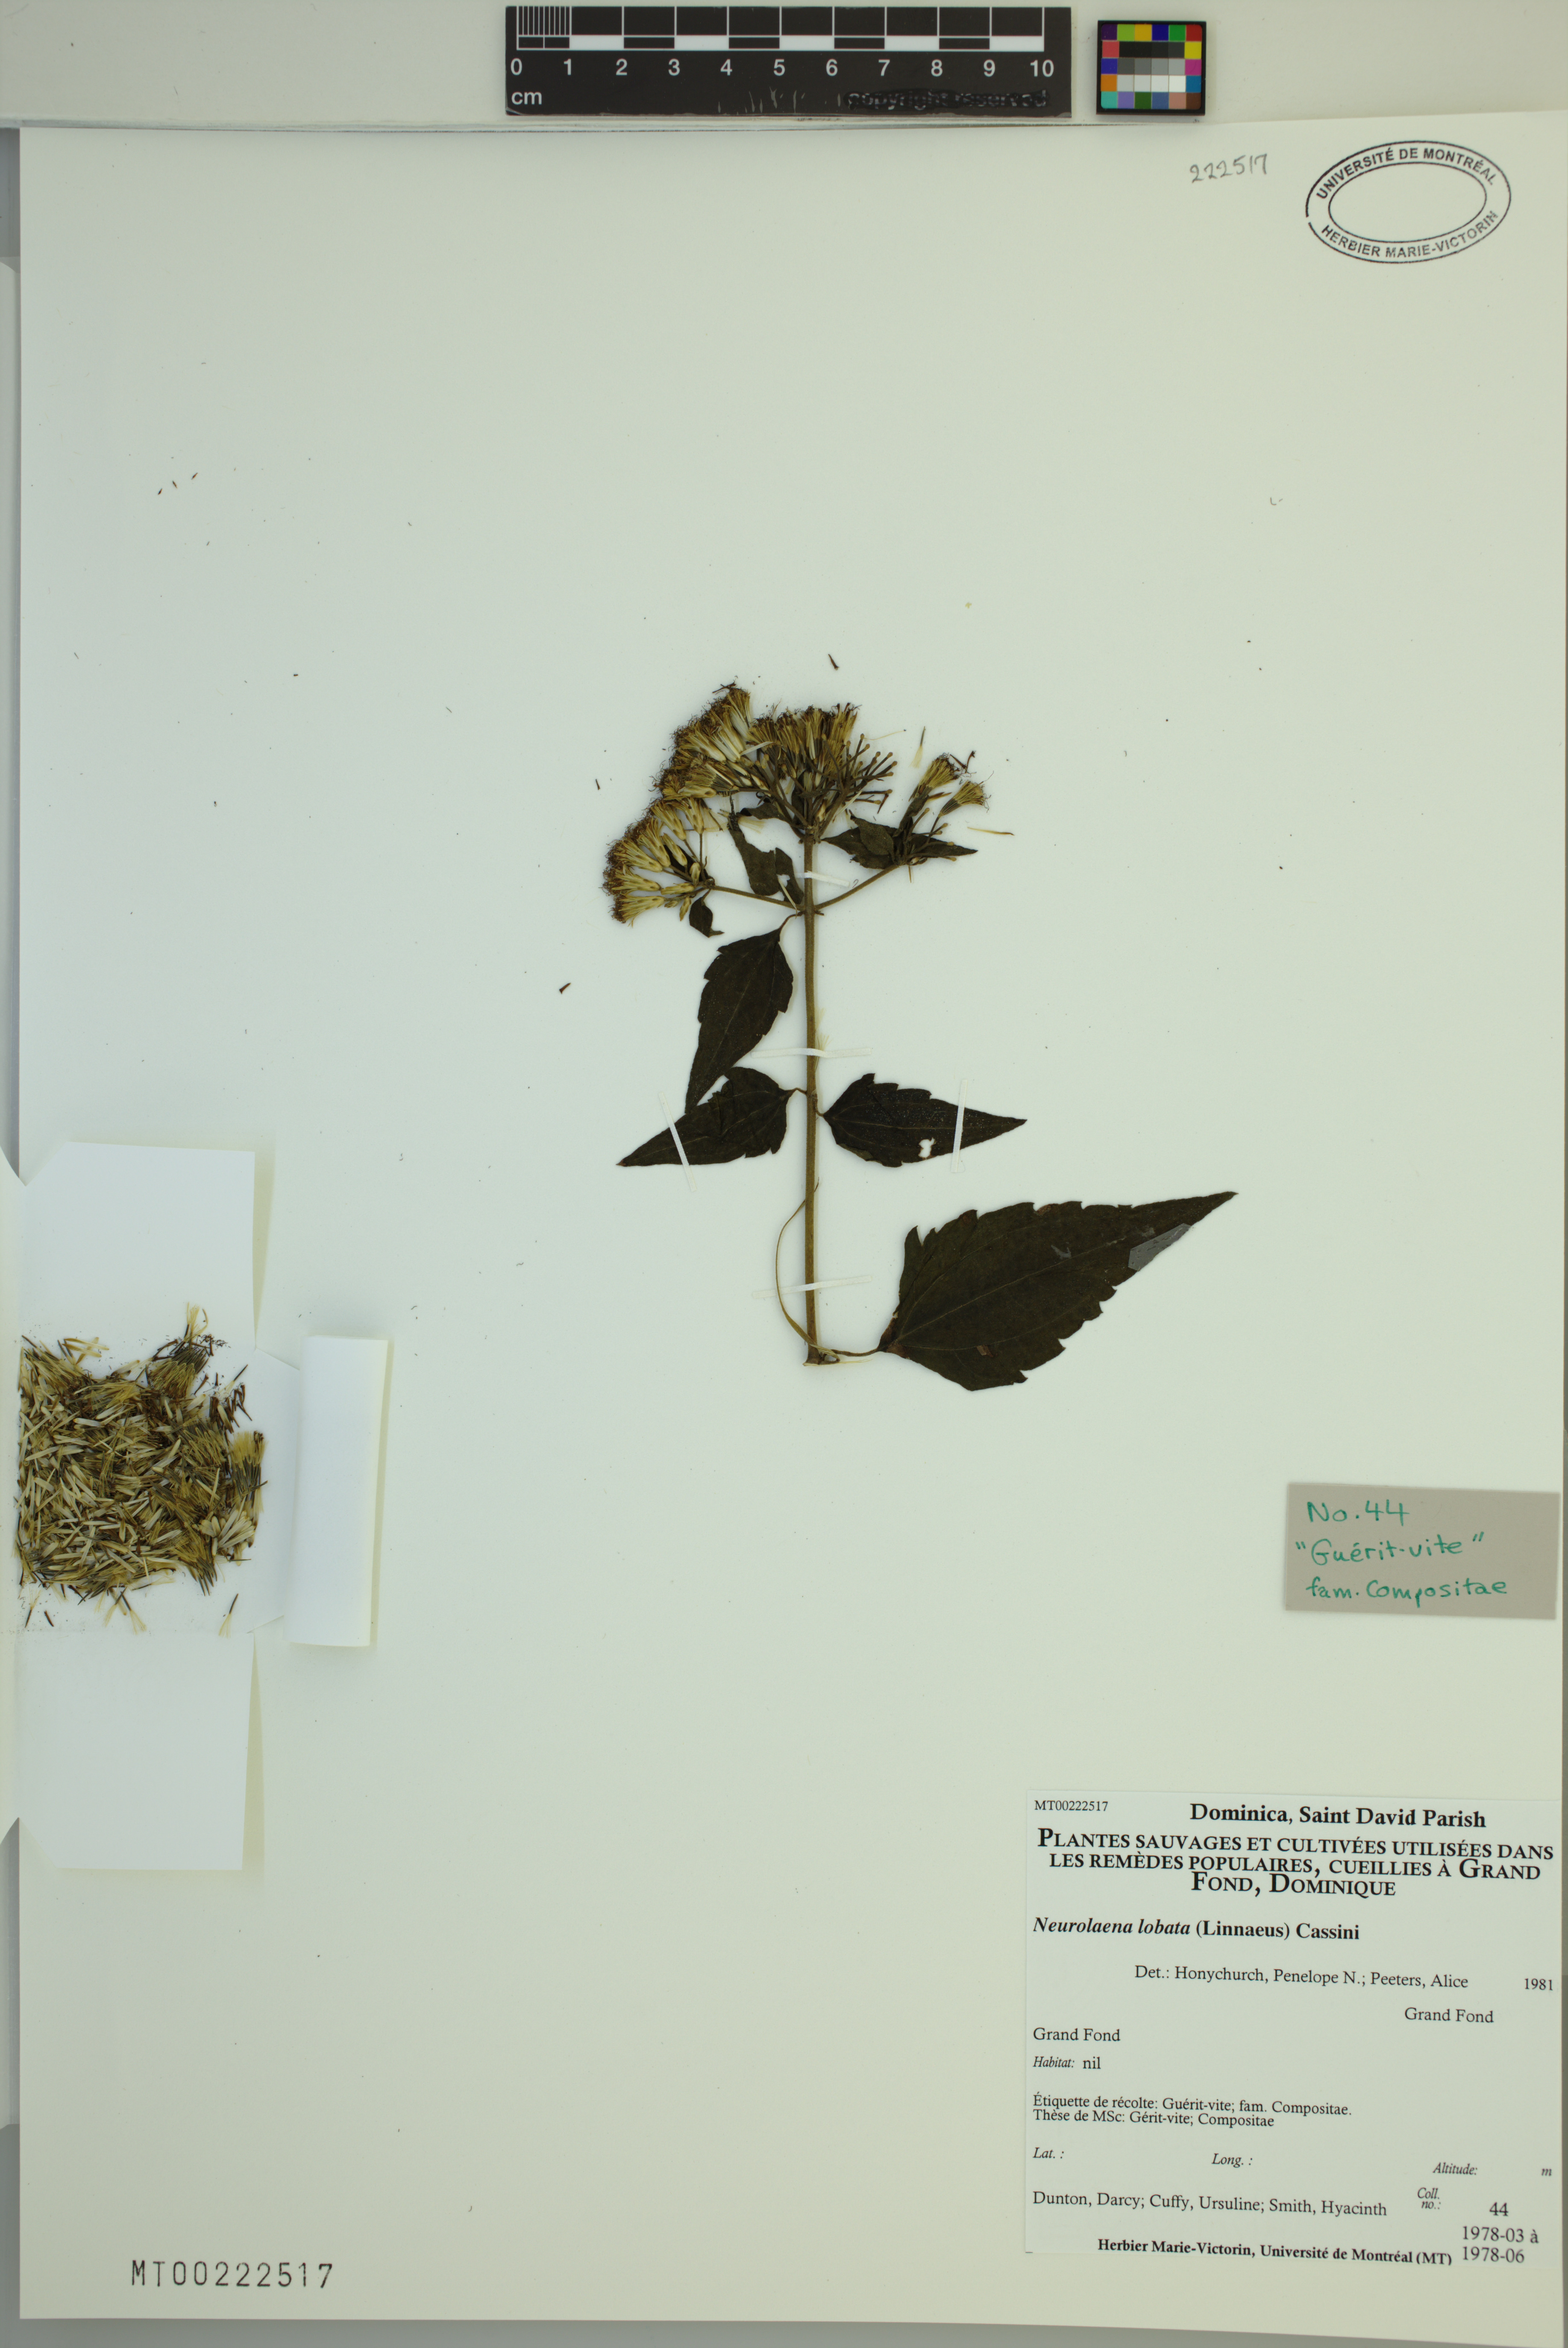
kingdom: Plantae
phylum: Tracheophyta
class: Magnoliopsida
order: Asterales
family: Asteraceae
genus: Neurolaena
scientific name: Neurolaena lobata
